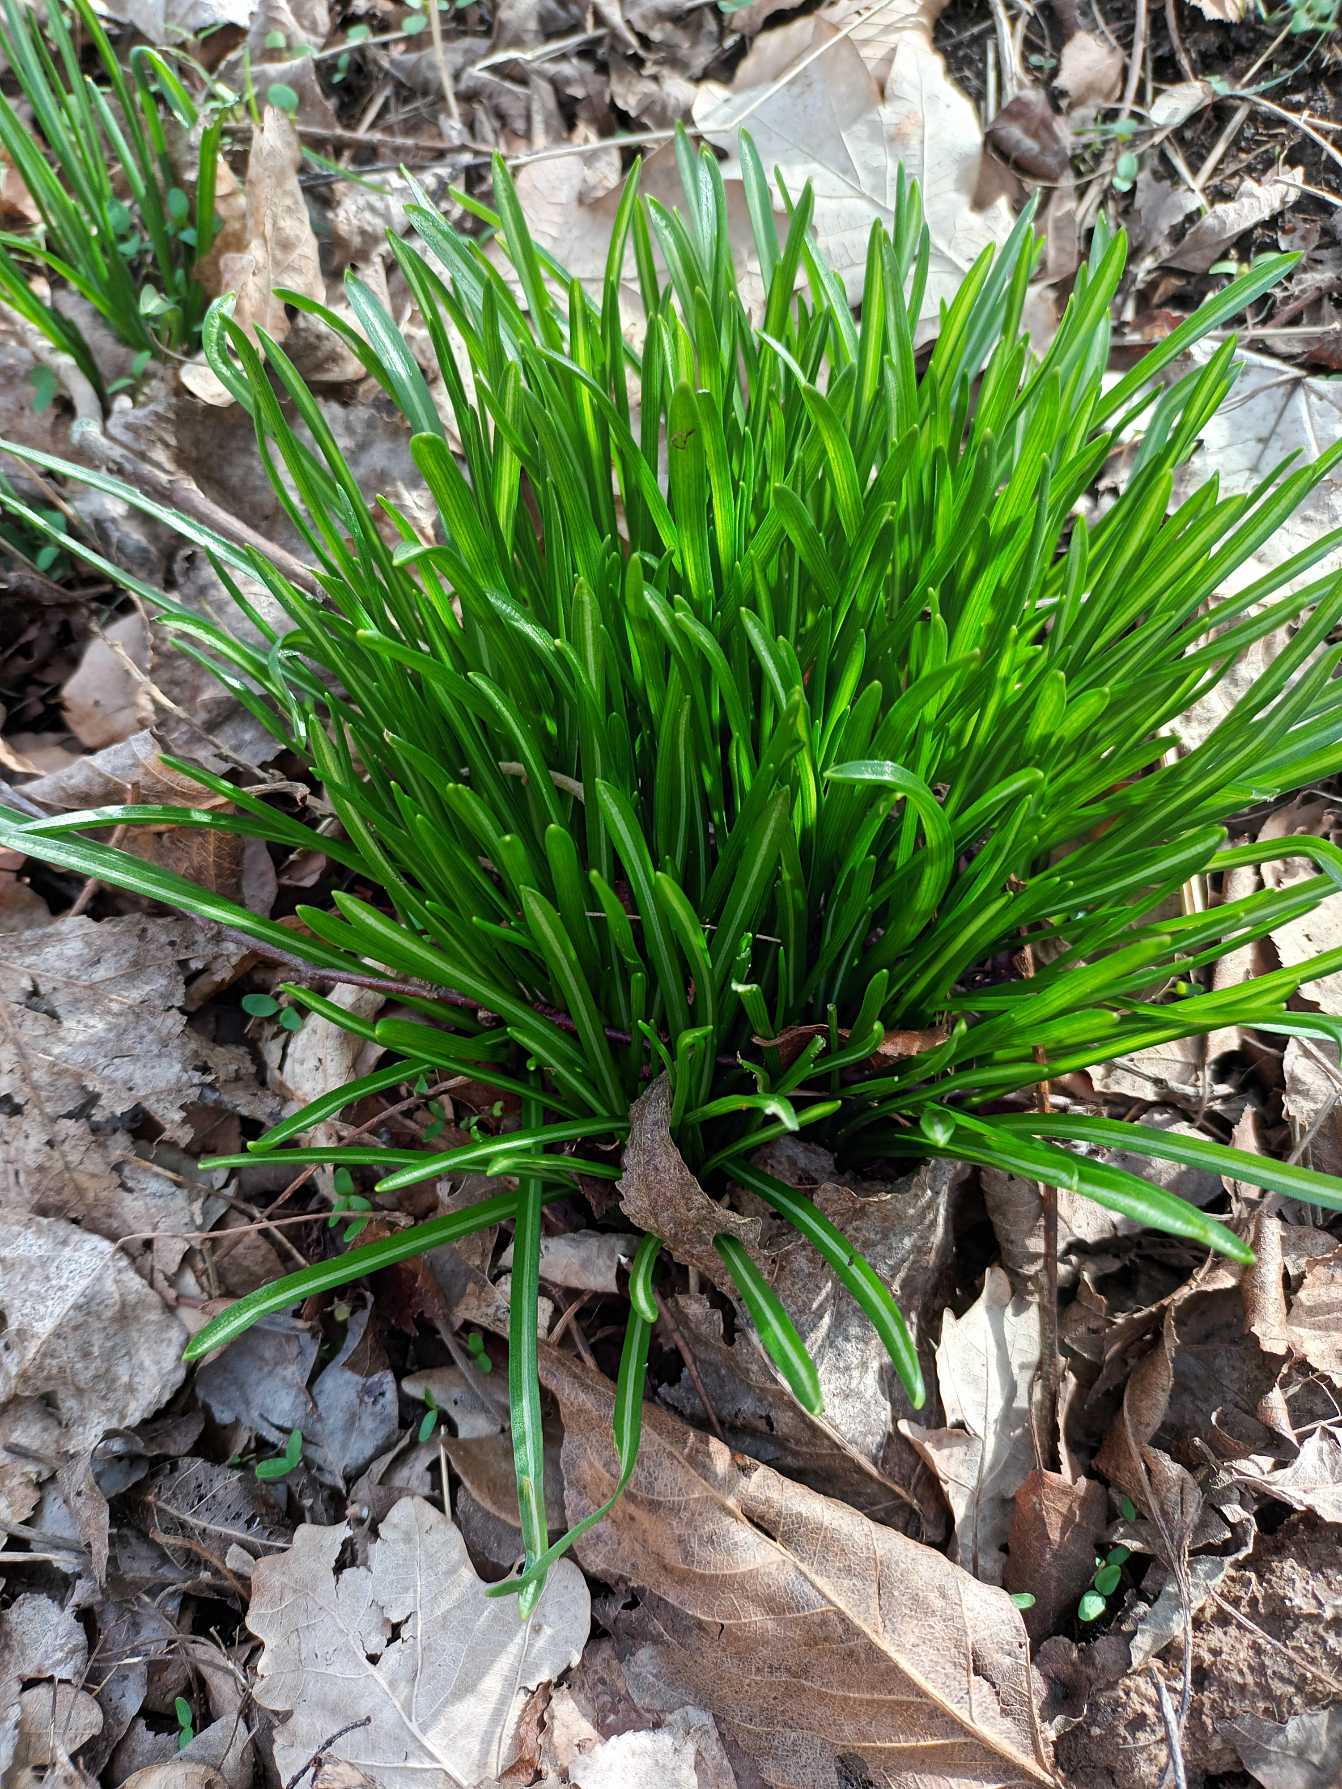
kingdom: Plantae
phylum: Tracheophyta
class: Liliopsida
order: Asparagales
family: Asparagaceae
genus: Ornithogalum
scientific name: Ornithogalum umbellatum
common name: Kost-fuglemælk
